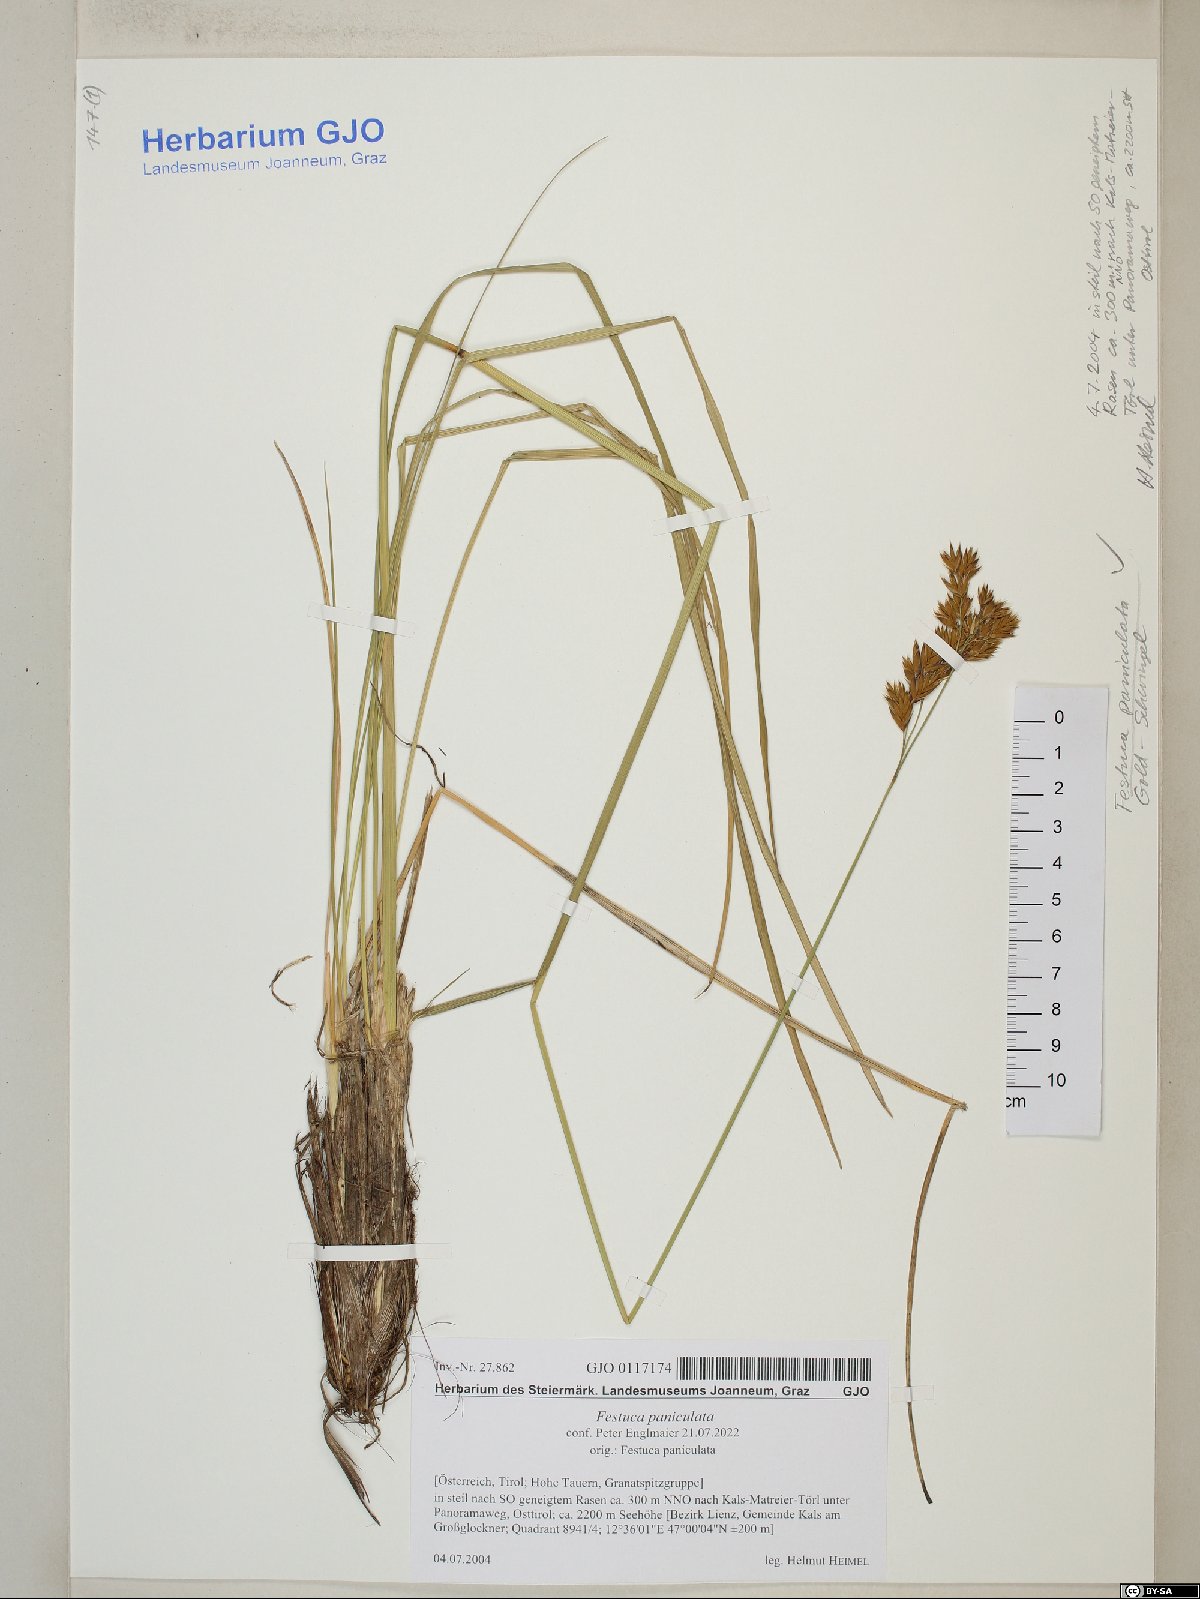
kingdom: Plantae
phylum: Tracheophyta
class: Liliopsida
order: Poales
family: Poaceae
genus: Patzkea
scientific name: Patzkea paniculata
